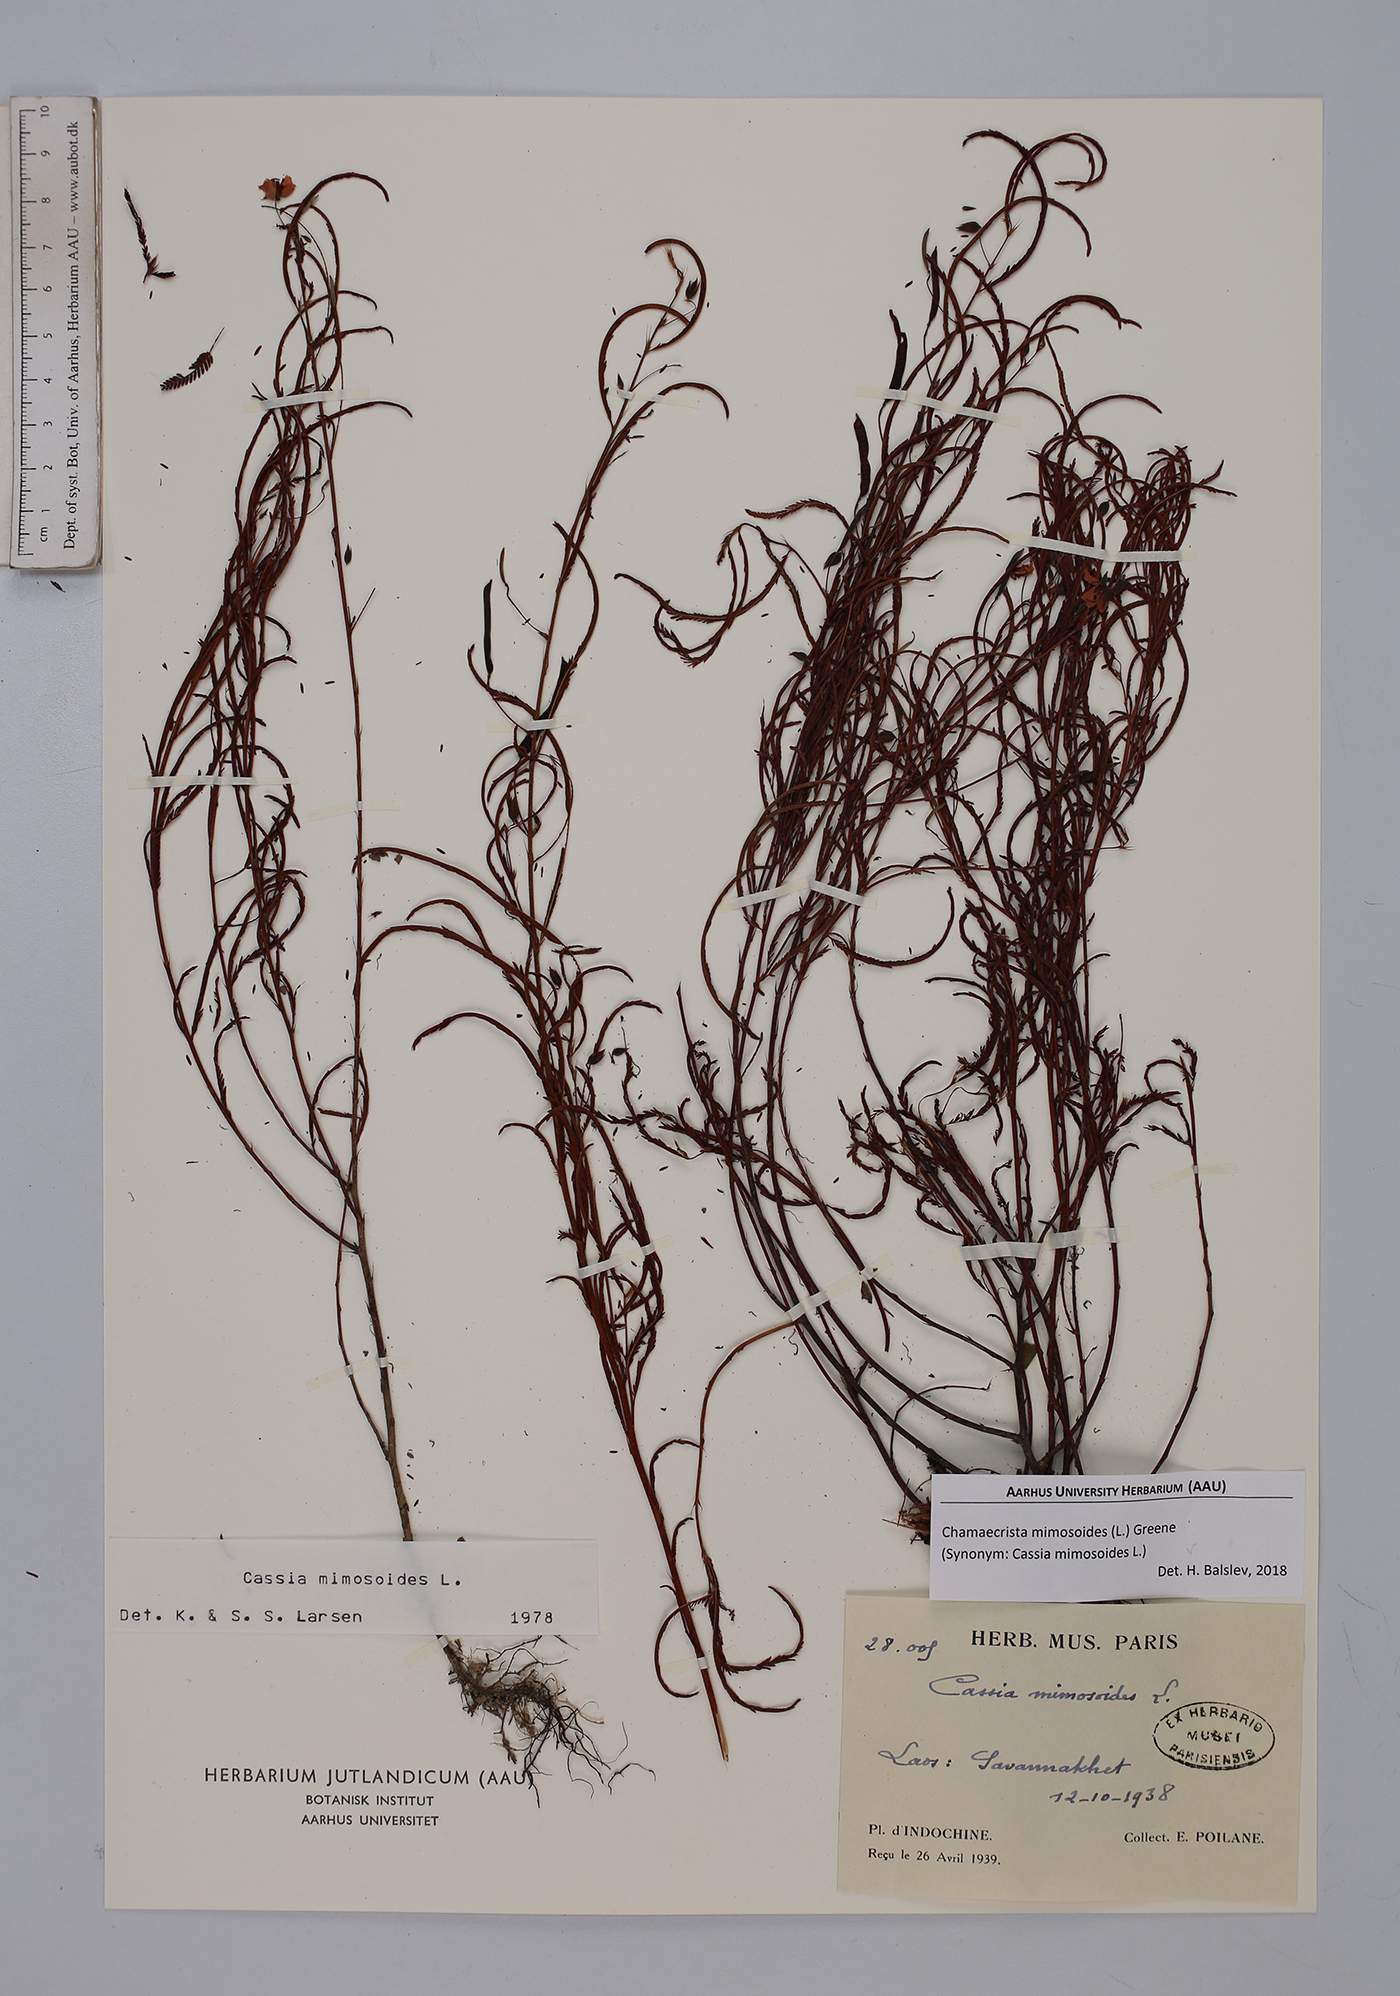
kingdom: Plantae
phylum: Tracheophyta
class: Magnoliopsida
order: Fabales
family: Fabaceae
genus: Chamaecrista
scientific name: Chamaecrista mimosoides
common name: Fish-bone cassia
